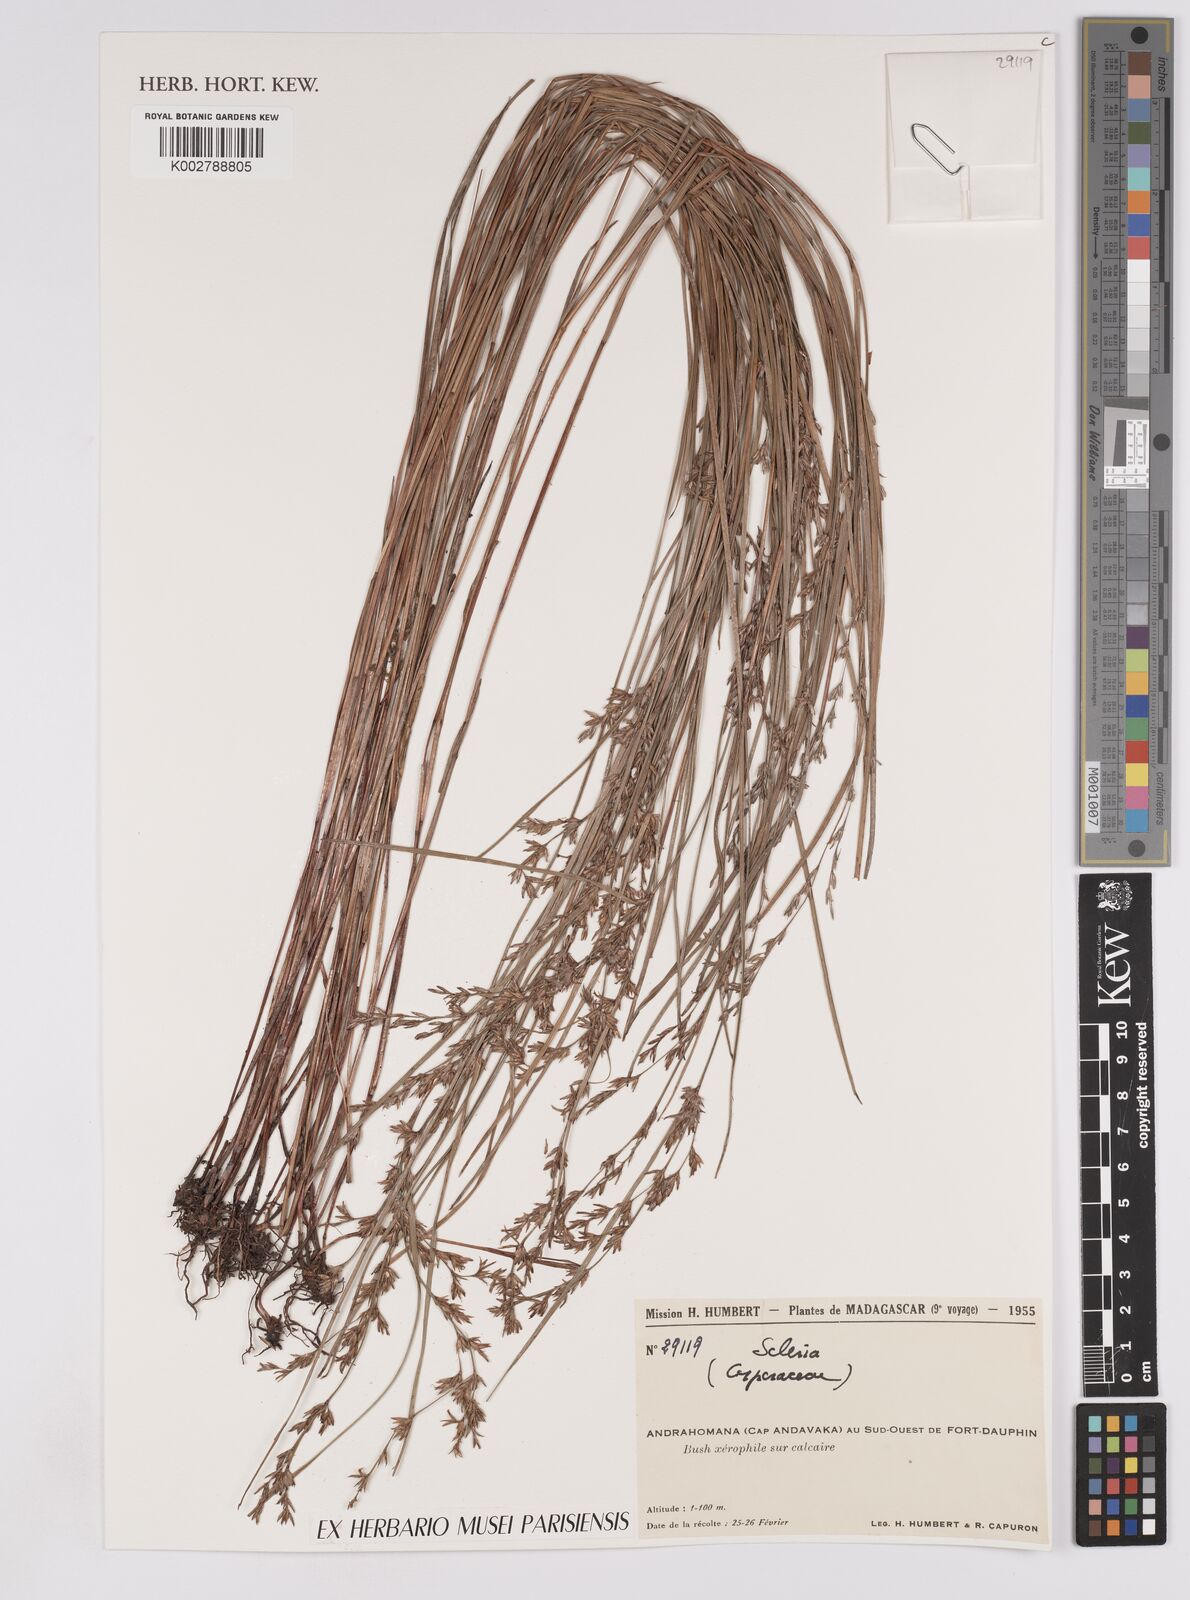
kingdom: Plantae
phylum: Tracheophyta
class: Liliopsida
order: Poales
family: Cyperaceae
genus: Scleria
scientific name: Scleria
